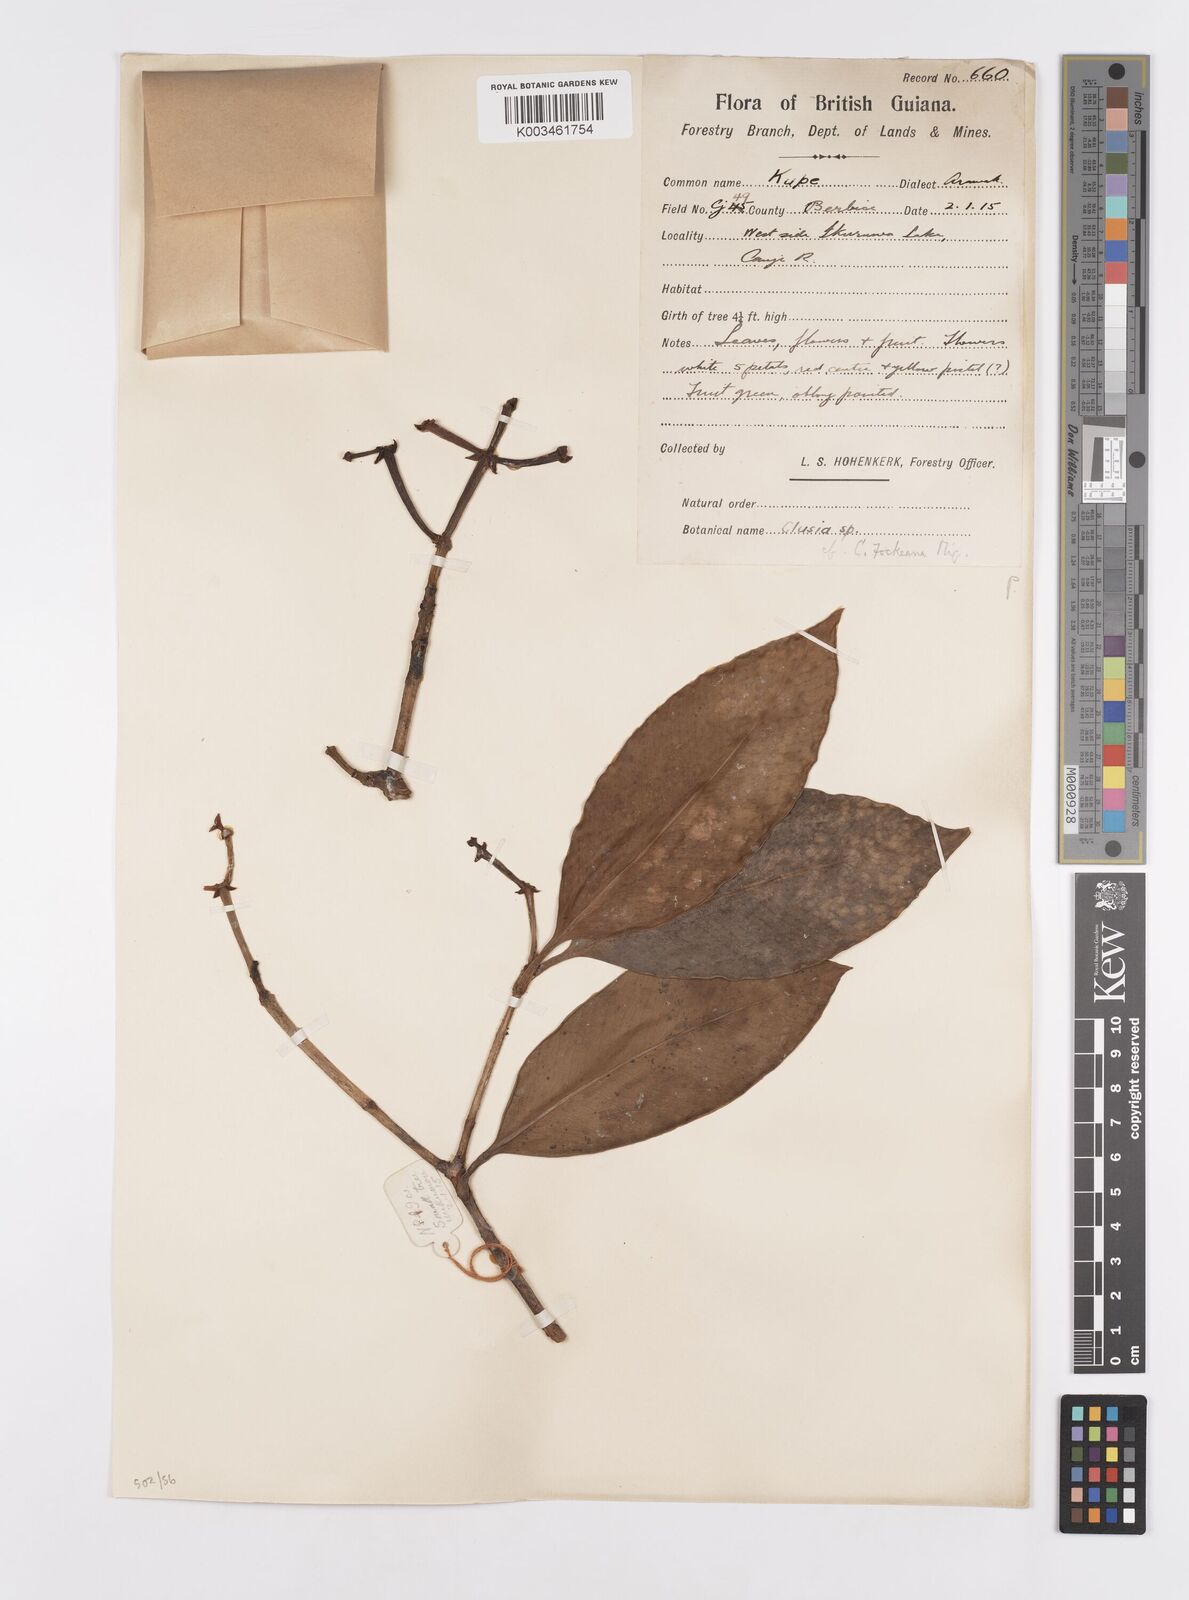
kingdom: Plantae
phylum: Tracheophyta
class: Magnoliopsida
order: Malpighiales
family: Clusiaceae
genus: Clusia
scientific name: Clusia fockeana
